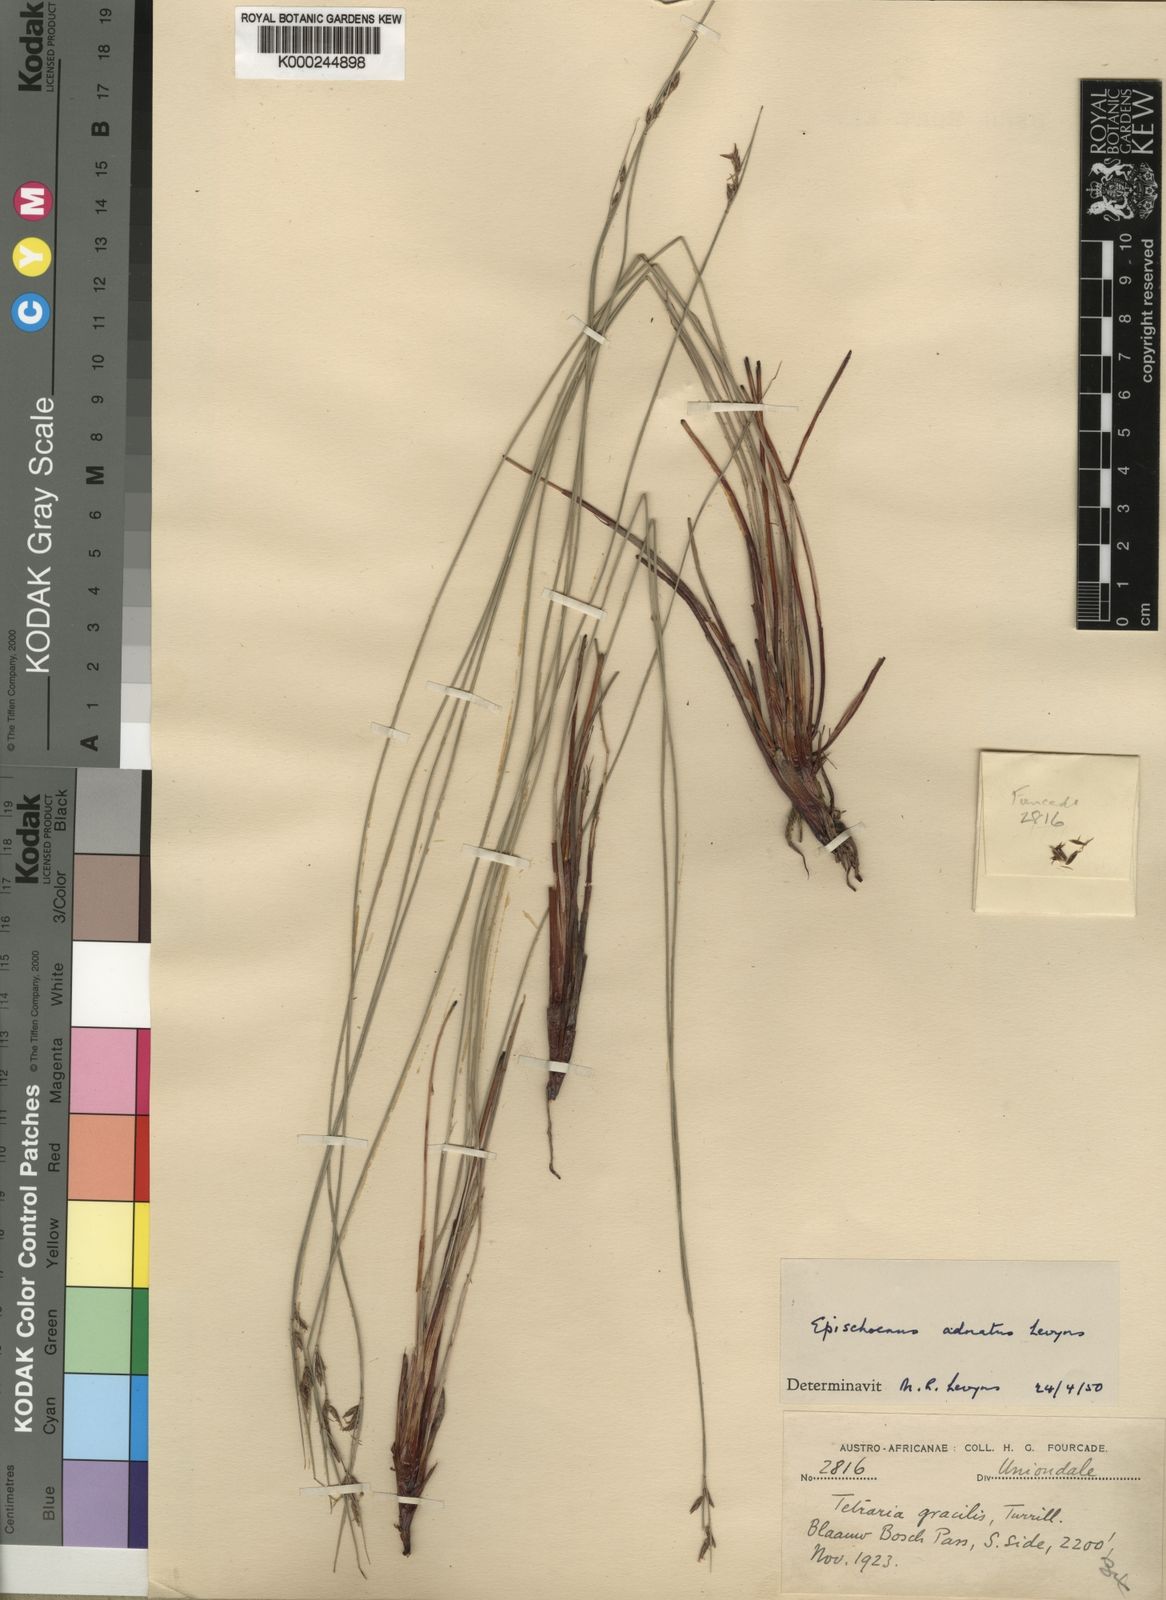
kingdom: Plantae
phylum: Tracheophyta
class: Liliopsida
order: Poales
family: Cyperaceae
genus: Schoenus
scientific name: Schoenus adnatus
